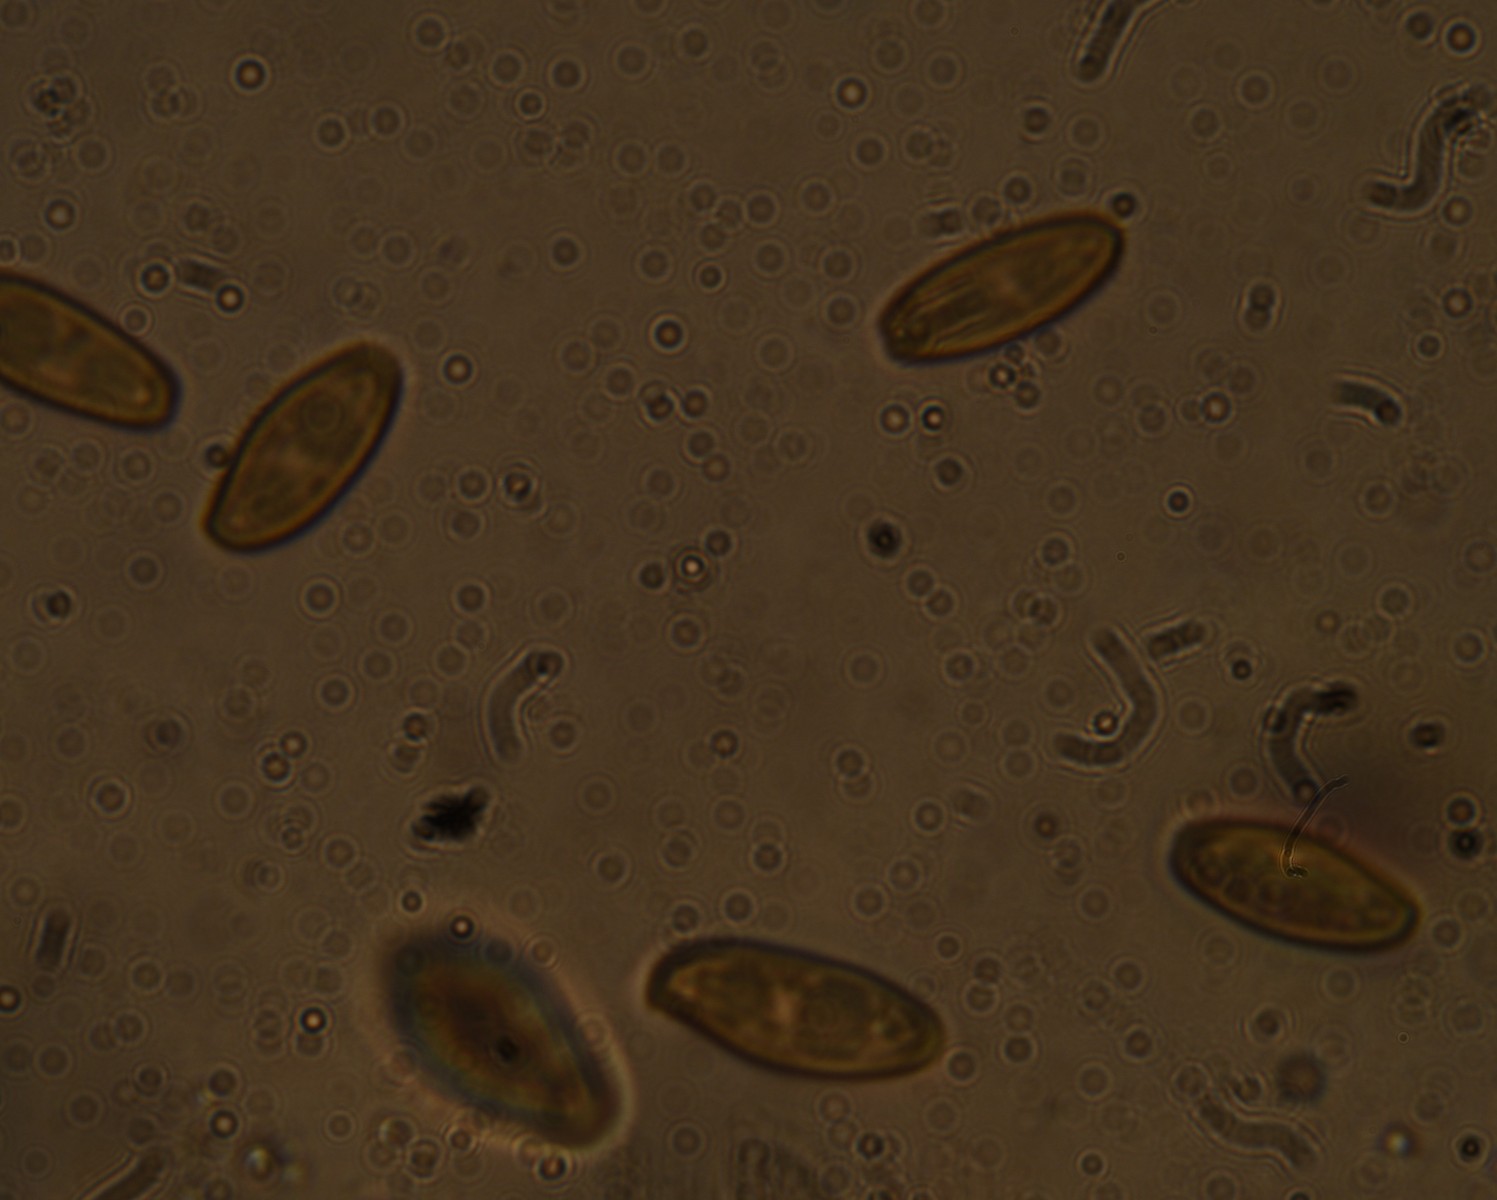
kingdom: Fungi
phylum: Basidiomycota
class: Agaricomycetes
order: Boletales
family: Boletaceae
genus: Xerocomellus
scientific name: Xerocomellus porosporus
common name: hvidsprukken rørhat
